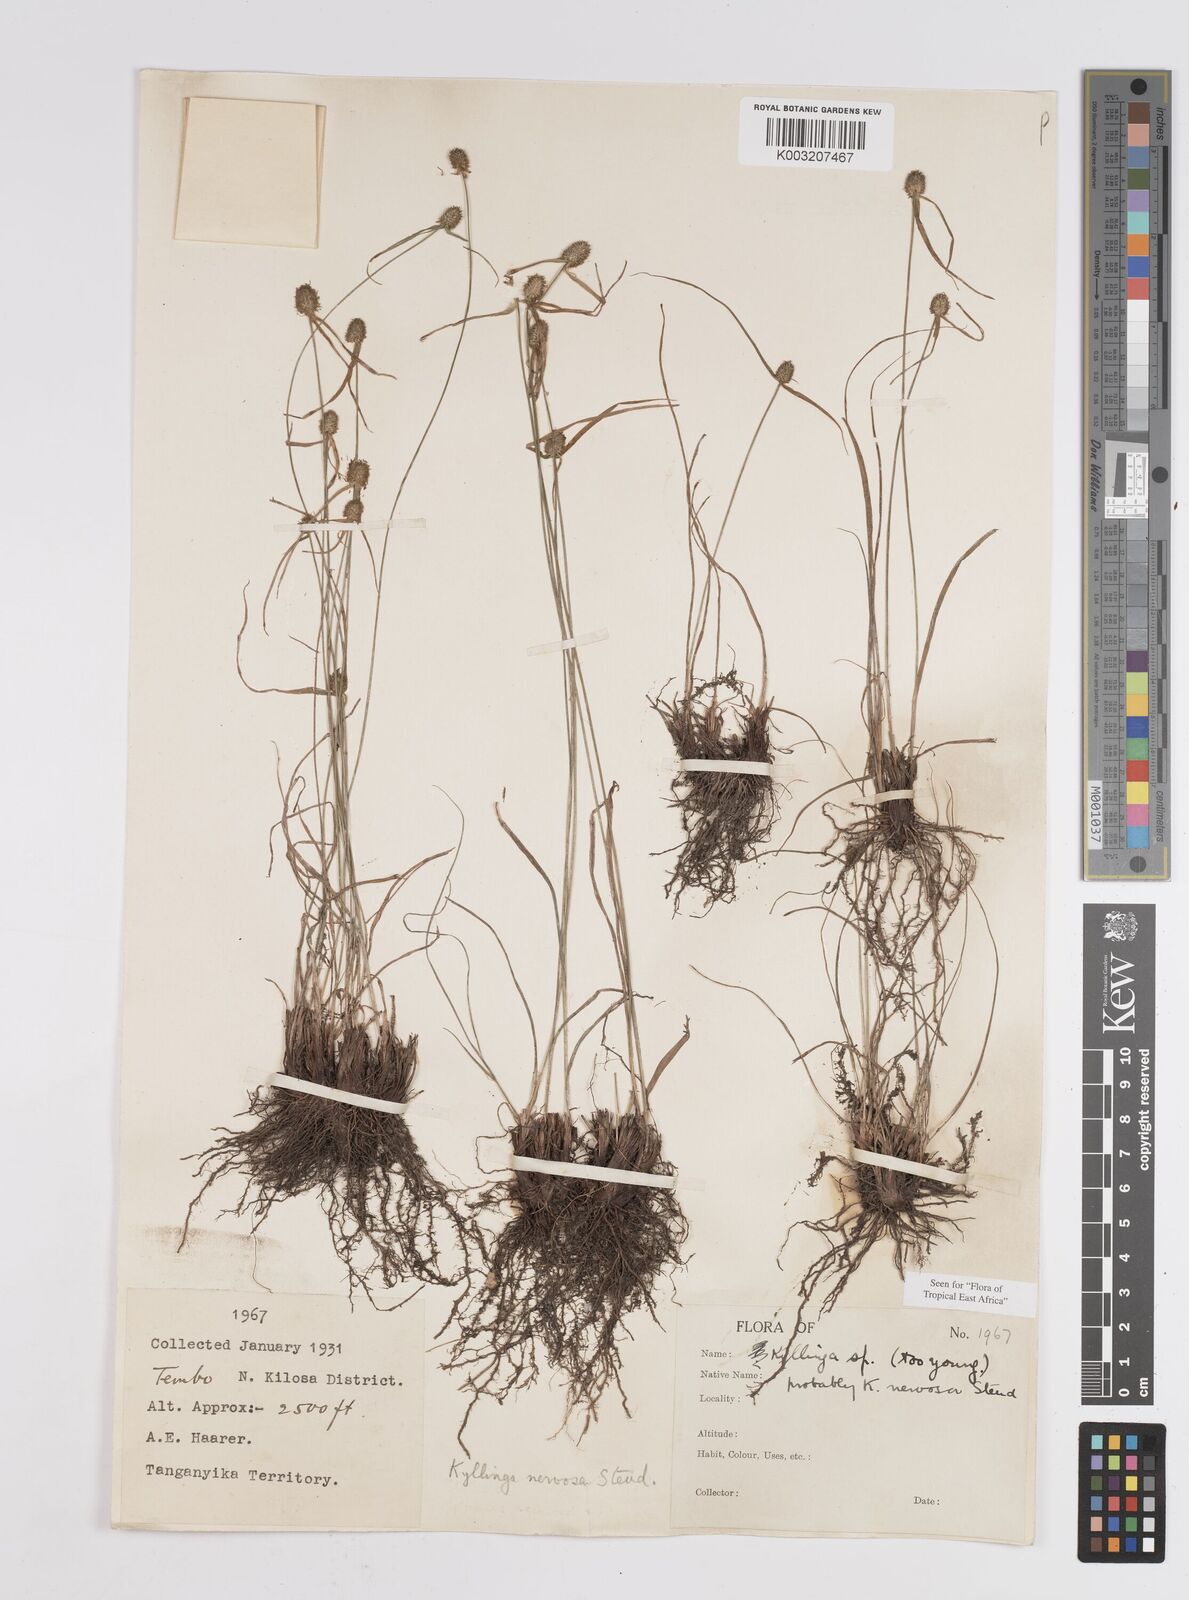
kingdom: Plantae
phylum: Tracheophyta
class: Liliopsida
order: Poales
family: Cyperaceae
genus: Cyperus
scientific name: Cyperus
